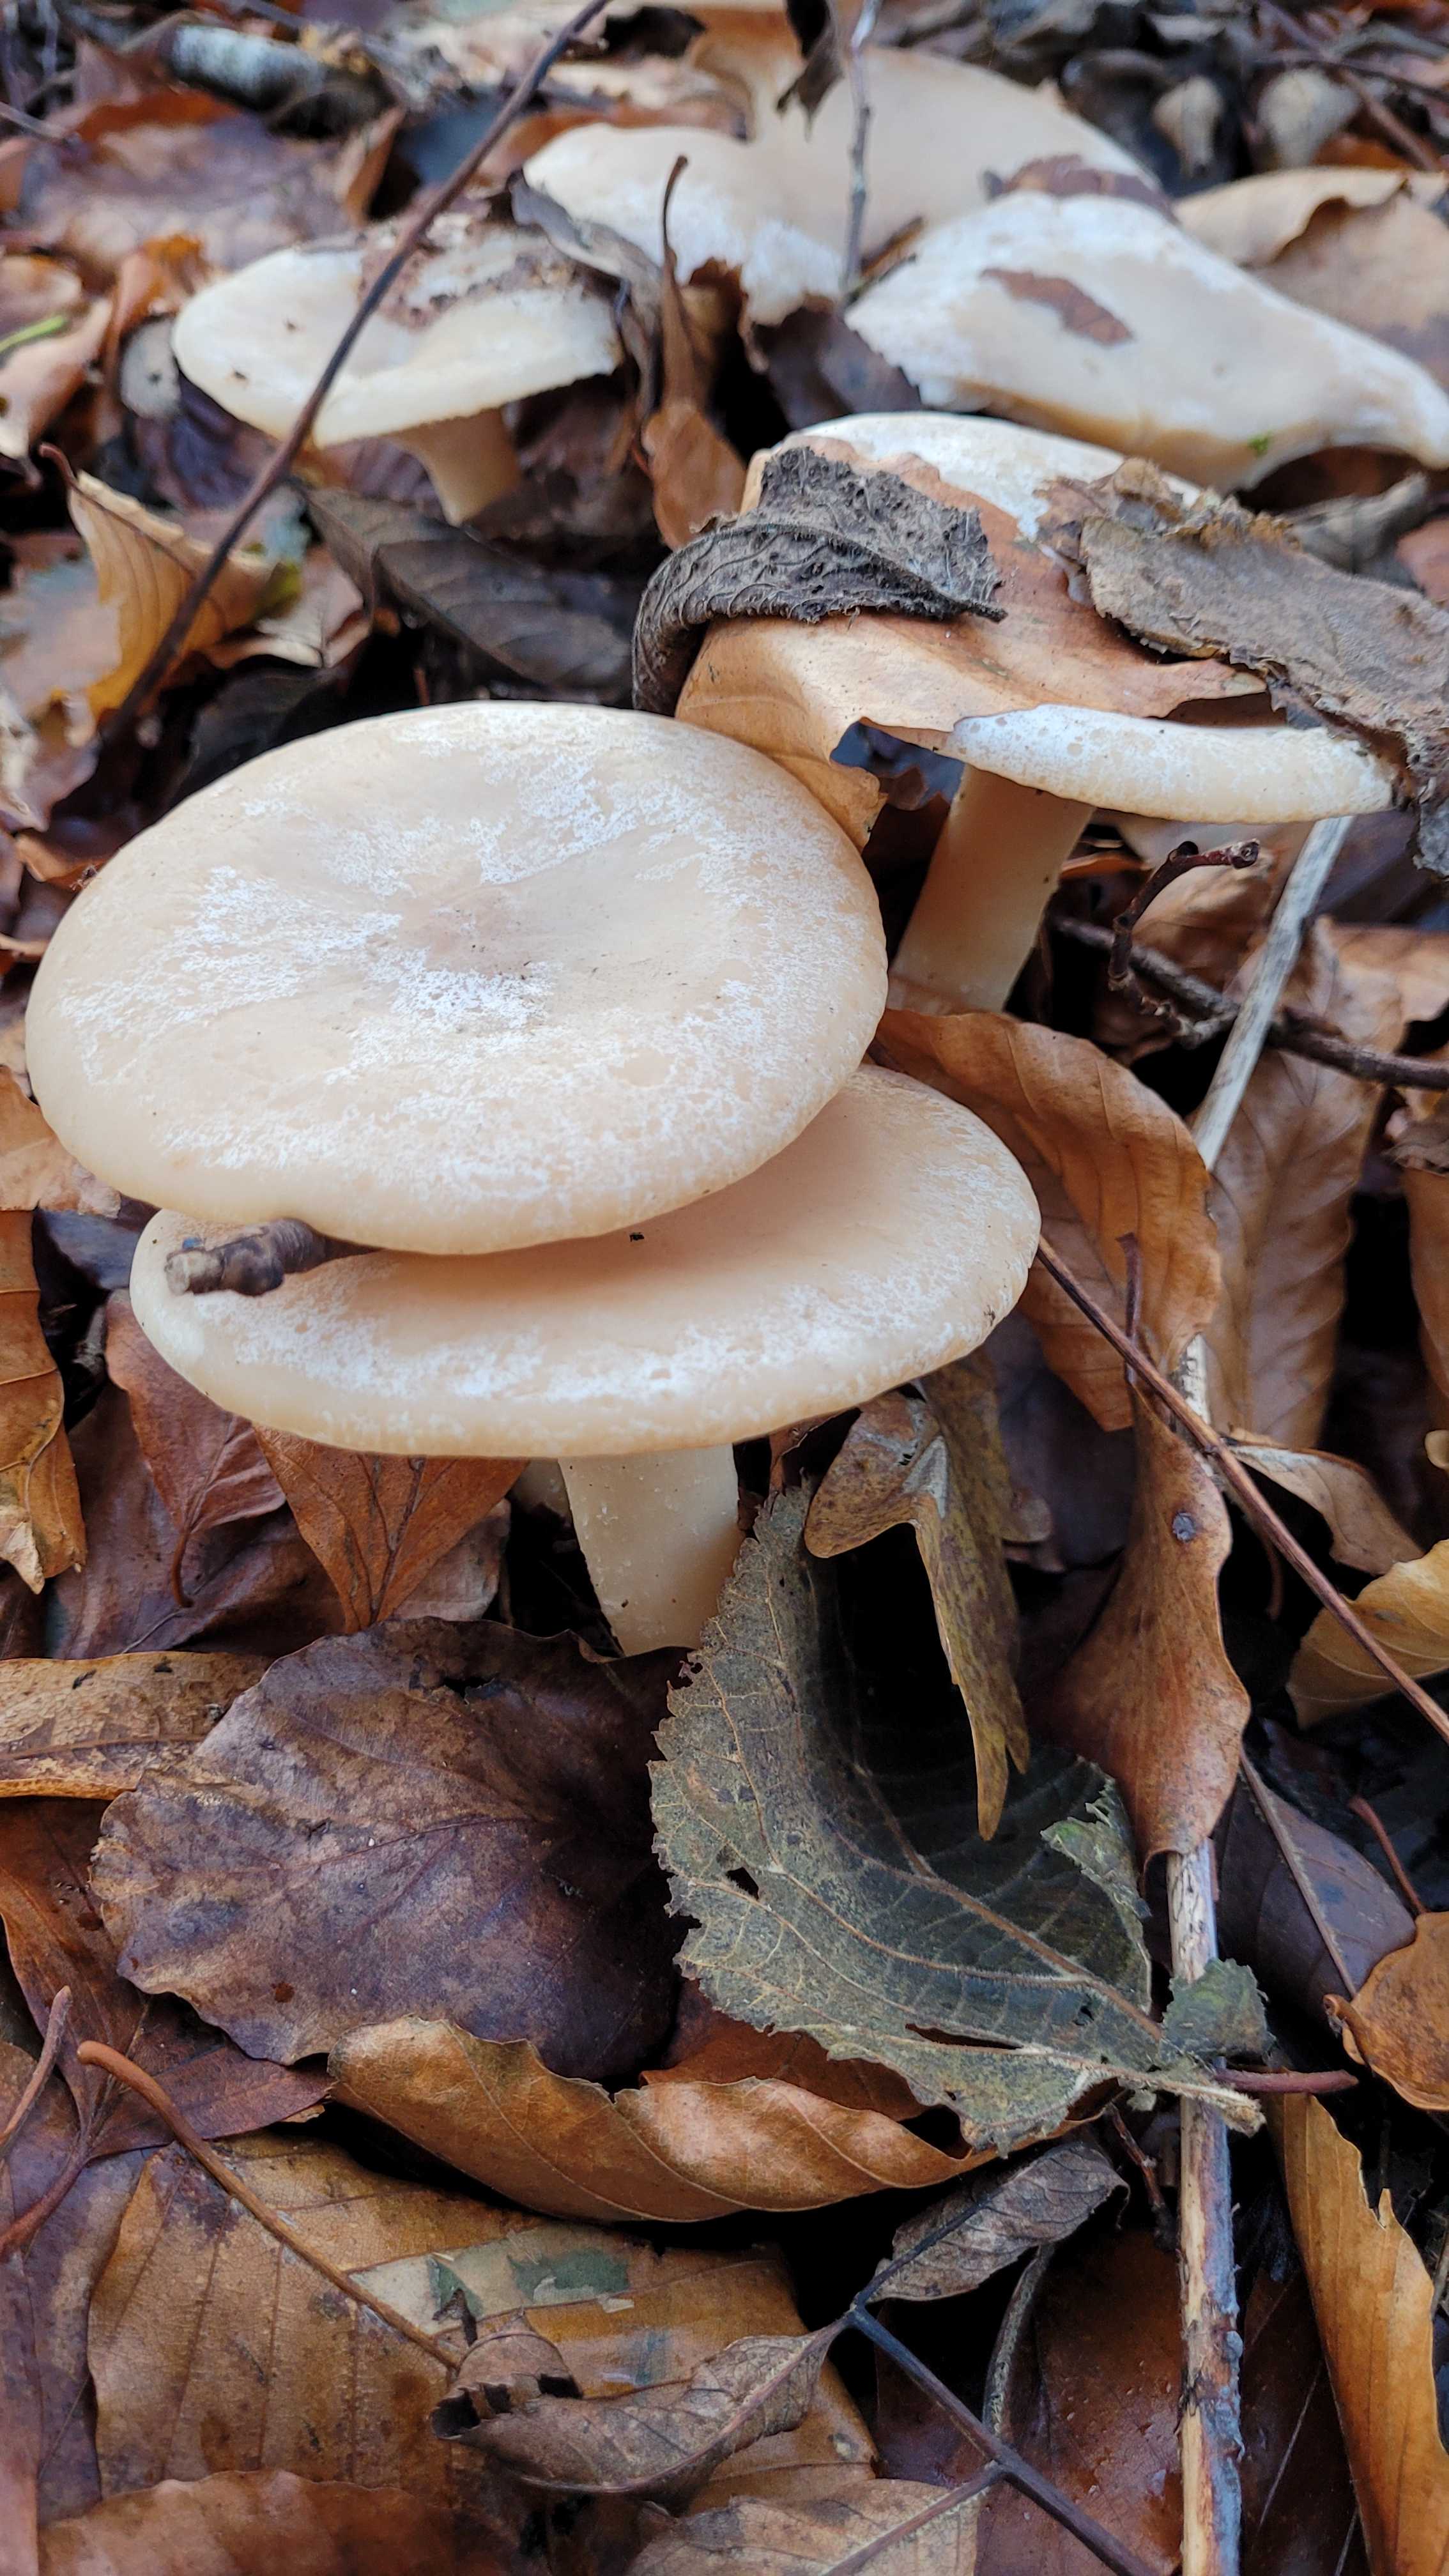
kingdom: Fungi
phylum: Basidiomycota
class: Agaricomycetes
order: Agaricales
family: Tricholomataceae
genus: Infundibulicybe
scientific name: Infundibulicybe geotropa
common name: stor tragthat
